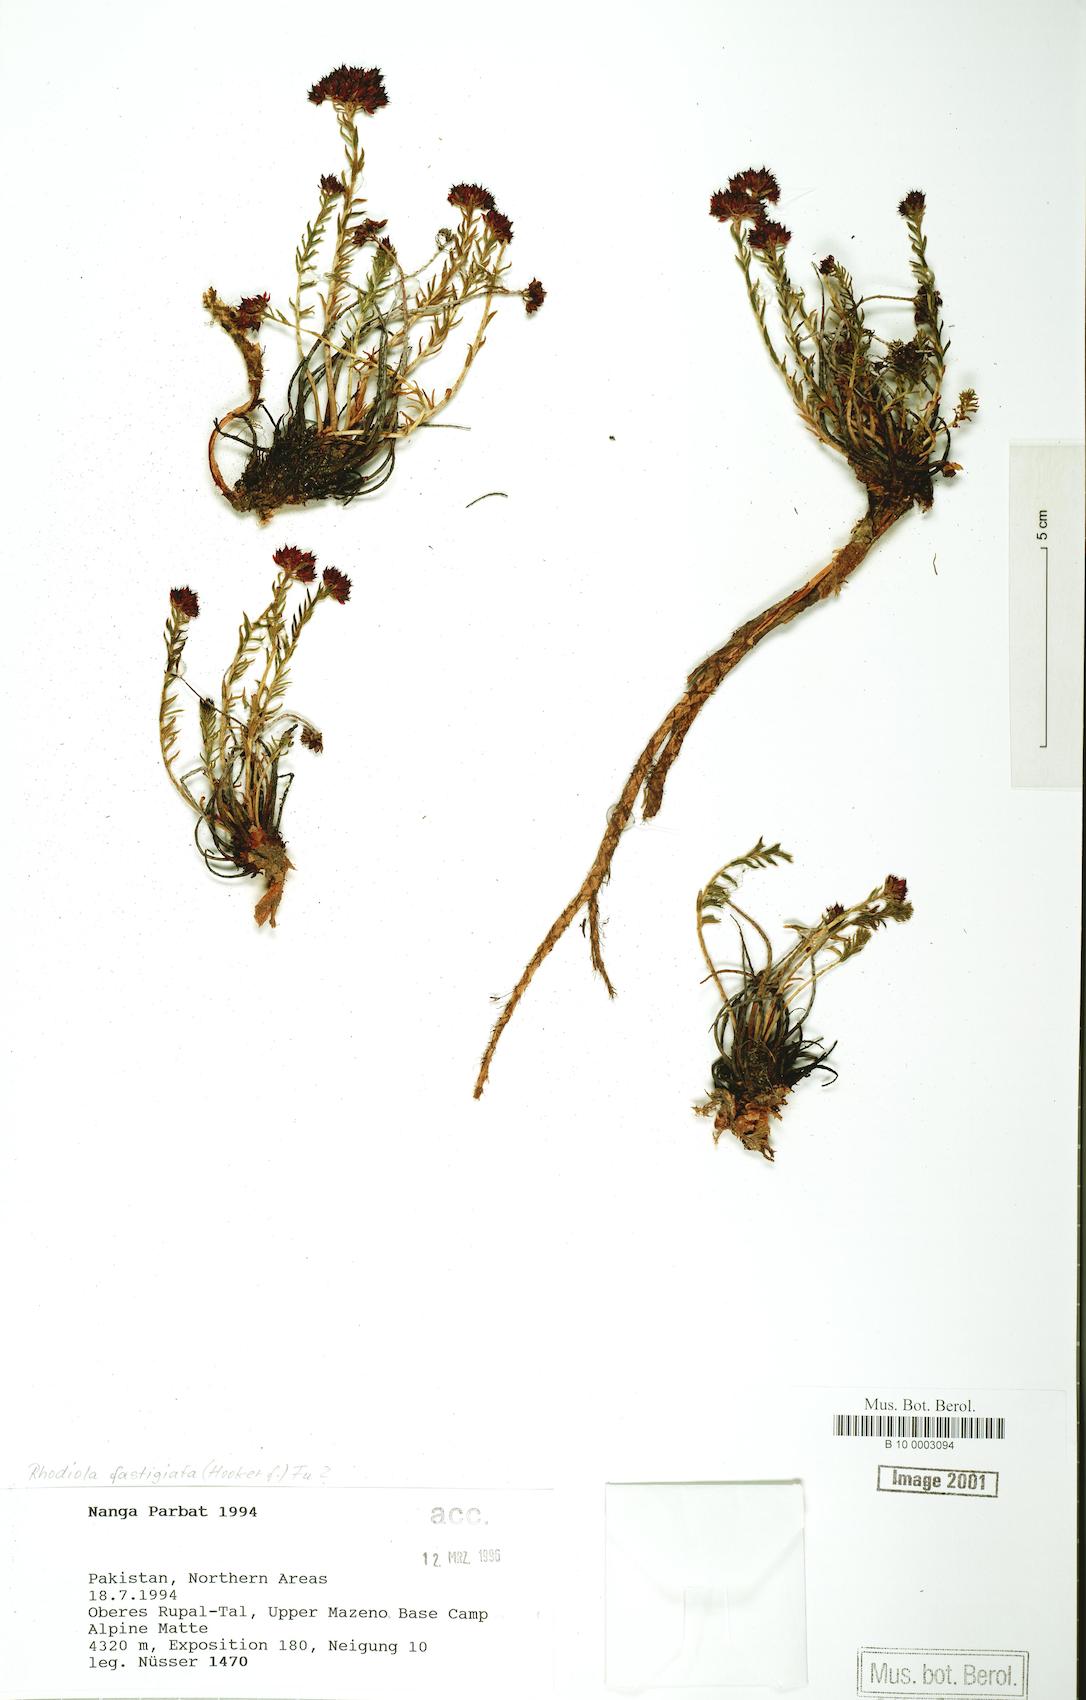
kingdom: Plantae
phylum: Tracheophyta
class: Magnoliopsida
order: Saxifragales
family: Crassulaceae
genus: Rhodiola
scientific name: Rhodiola fastigiata
